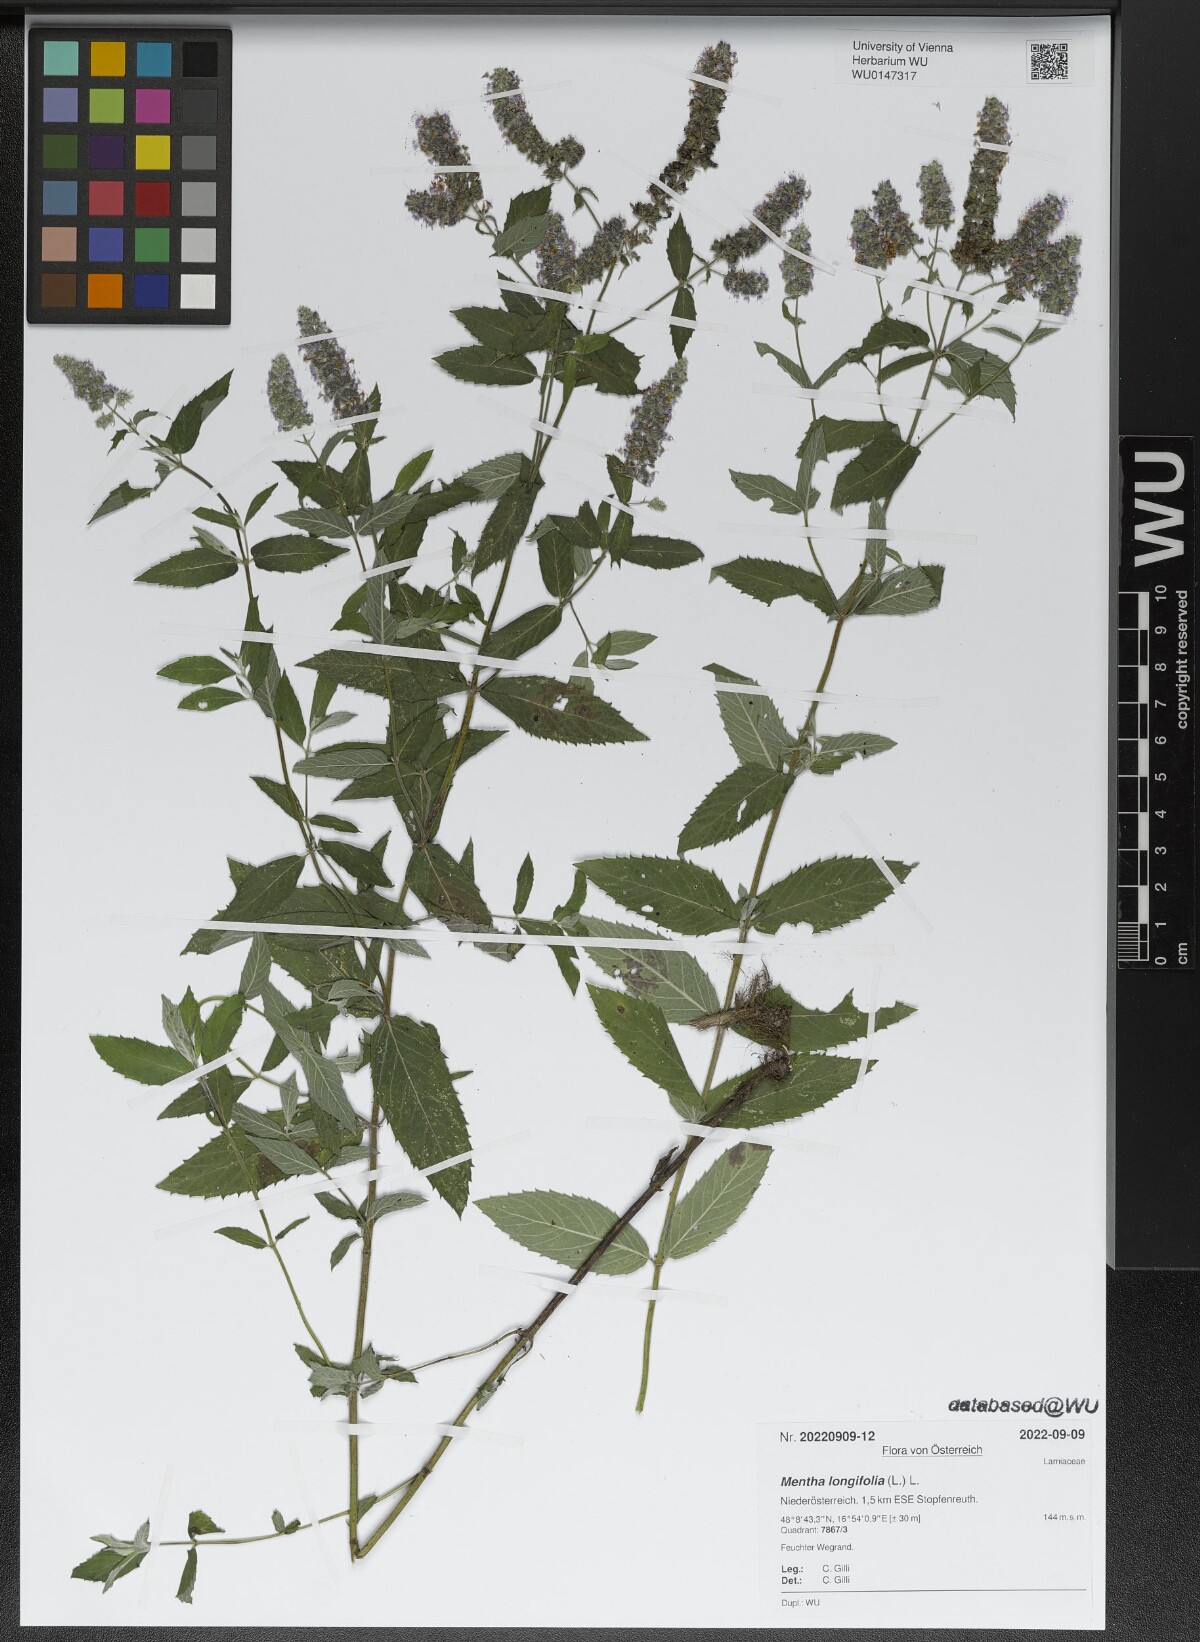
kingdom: Plantae
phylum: Tracheophyta
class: Magnoliopsida
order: Lamiales
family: Lamiaceae
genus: Mentha
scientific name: Mentha longifolia
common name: Horse mint
